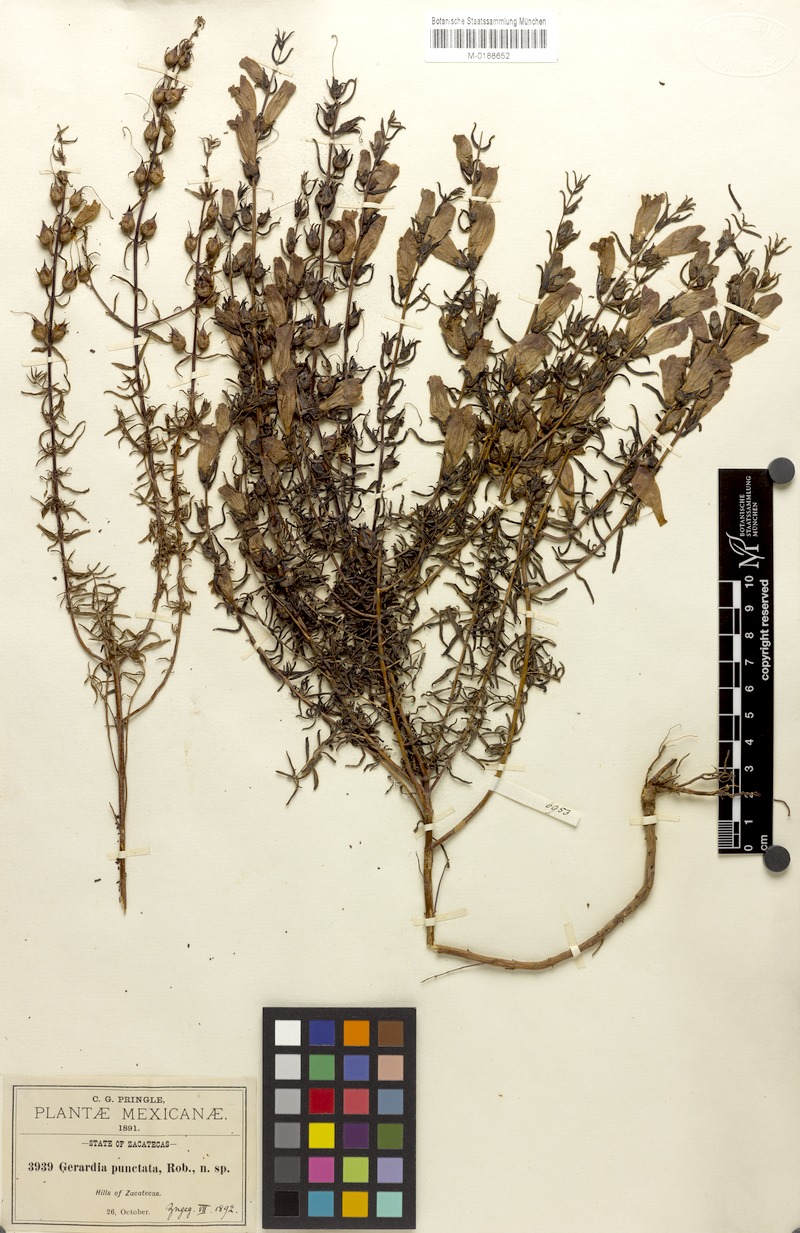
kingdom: Plantae
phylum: Tracheophyta
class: Magnoliopsida
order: Lamiales
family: Orobanchaceae
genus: Lamourouxia
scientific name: Lamourouxia dasyantha
